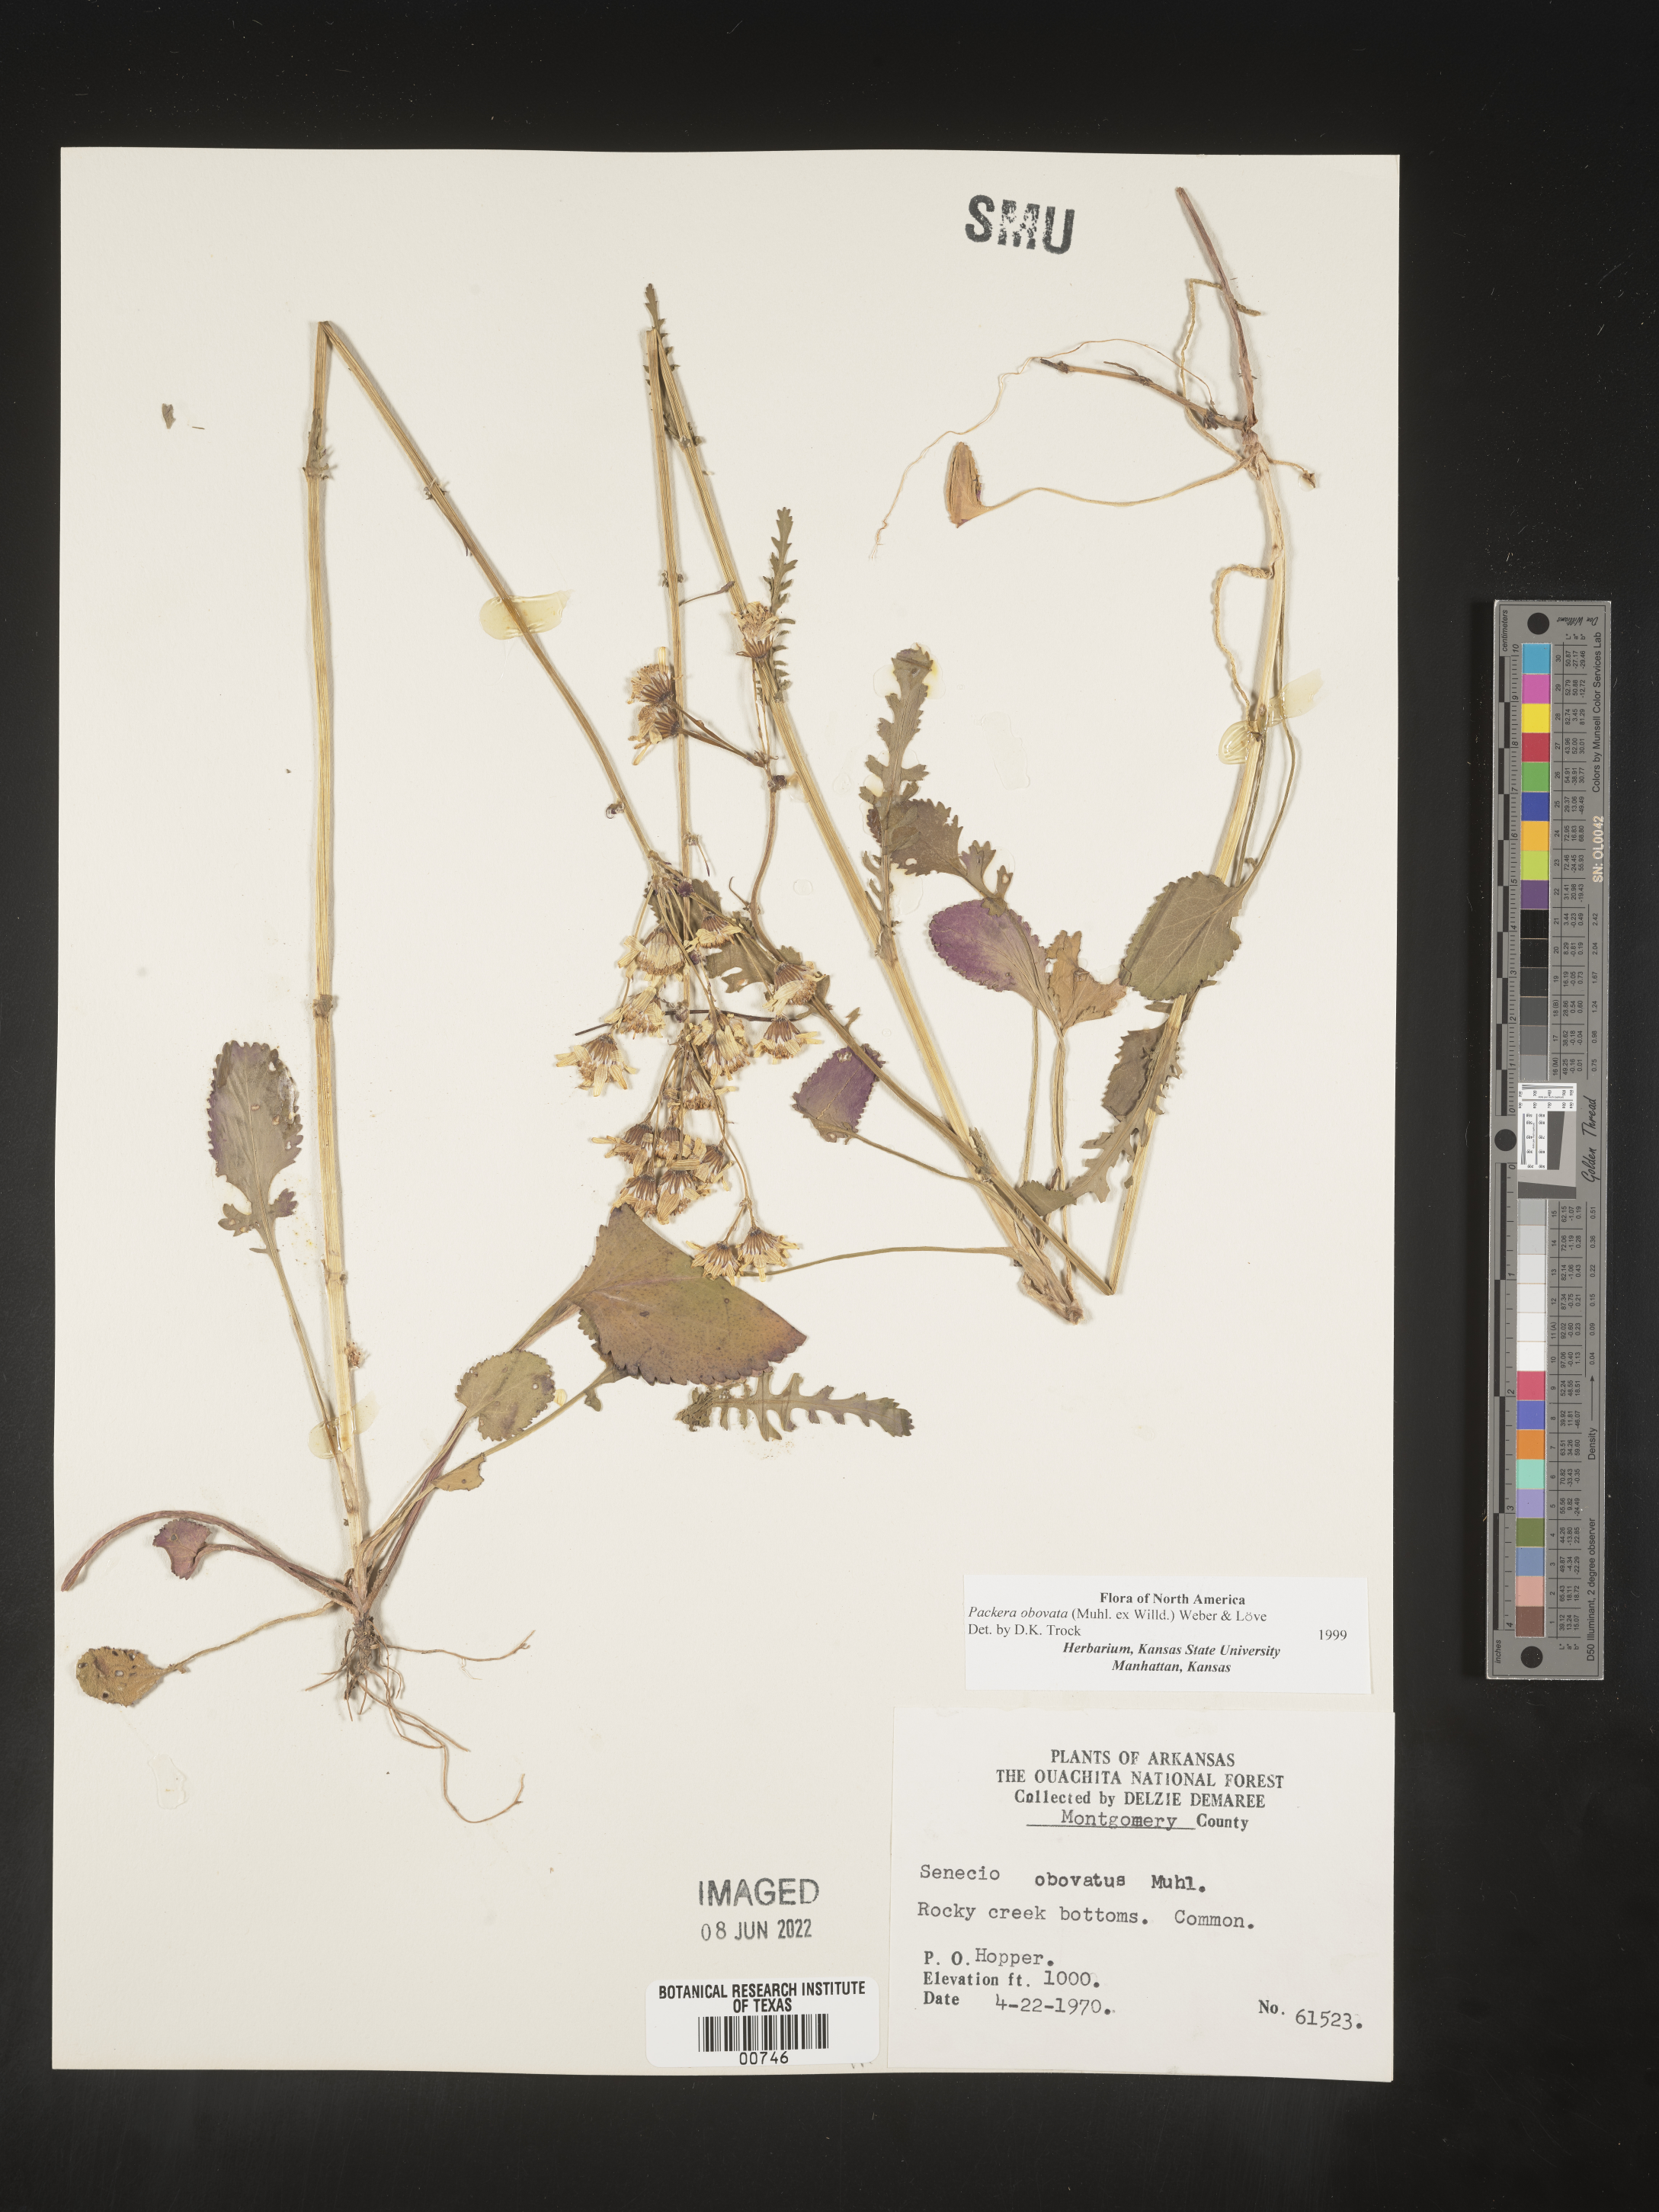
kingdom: Plantae
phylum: Tracheophyta
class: Magnoliopsida
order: Asterales
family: Asteraceae
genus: Packera
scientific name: Packera obovata
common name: Round-leaf ragwort
